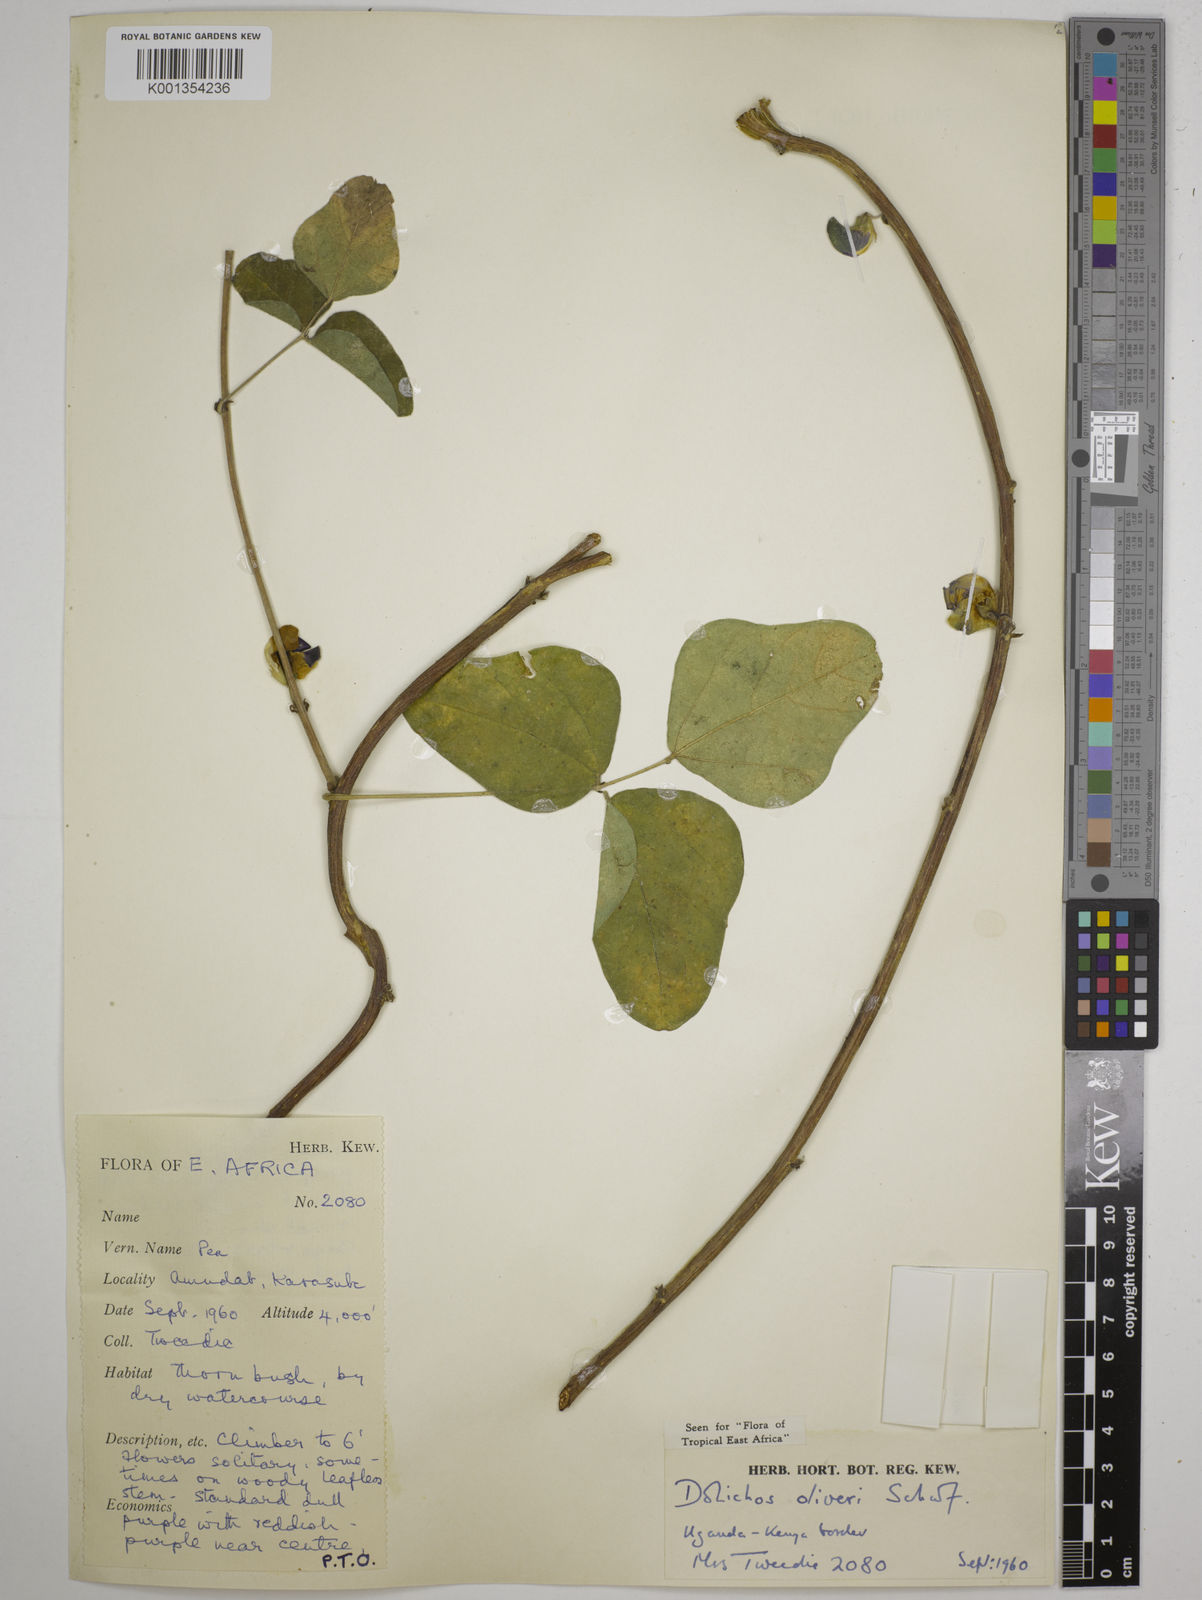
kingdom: Plantae
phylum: Tracheophyta
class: Magnoliopsida
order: Fabales
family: Fabaceae
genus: Dolichos
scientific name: Dolichos oliveri
